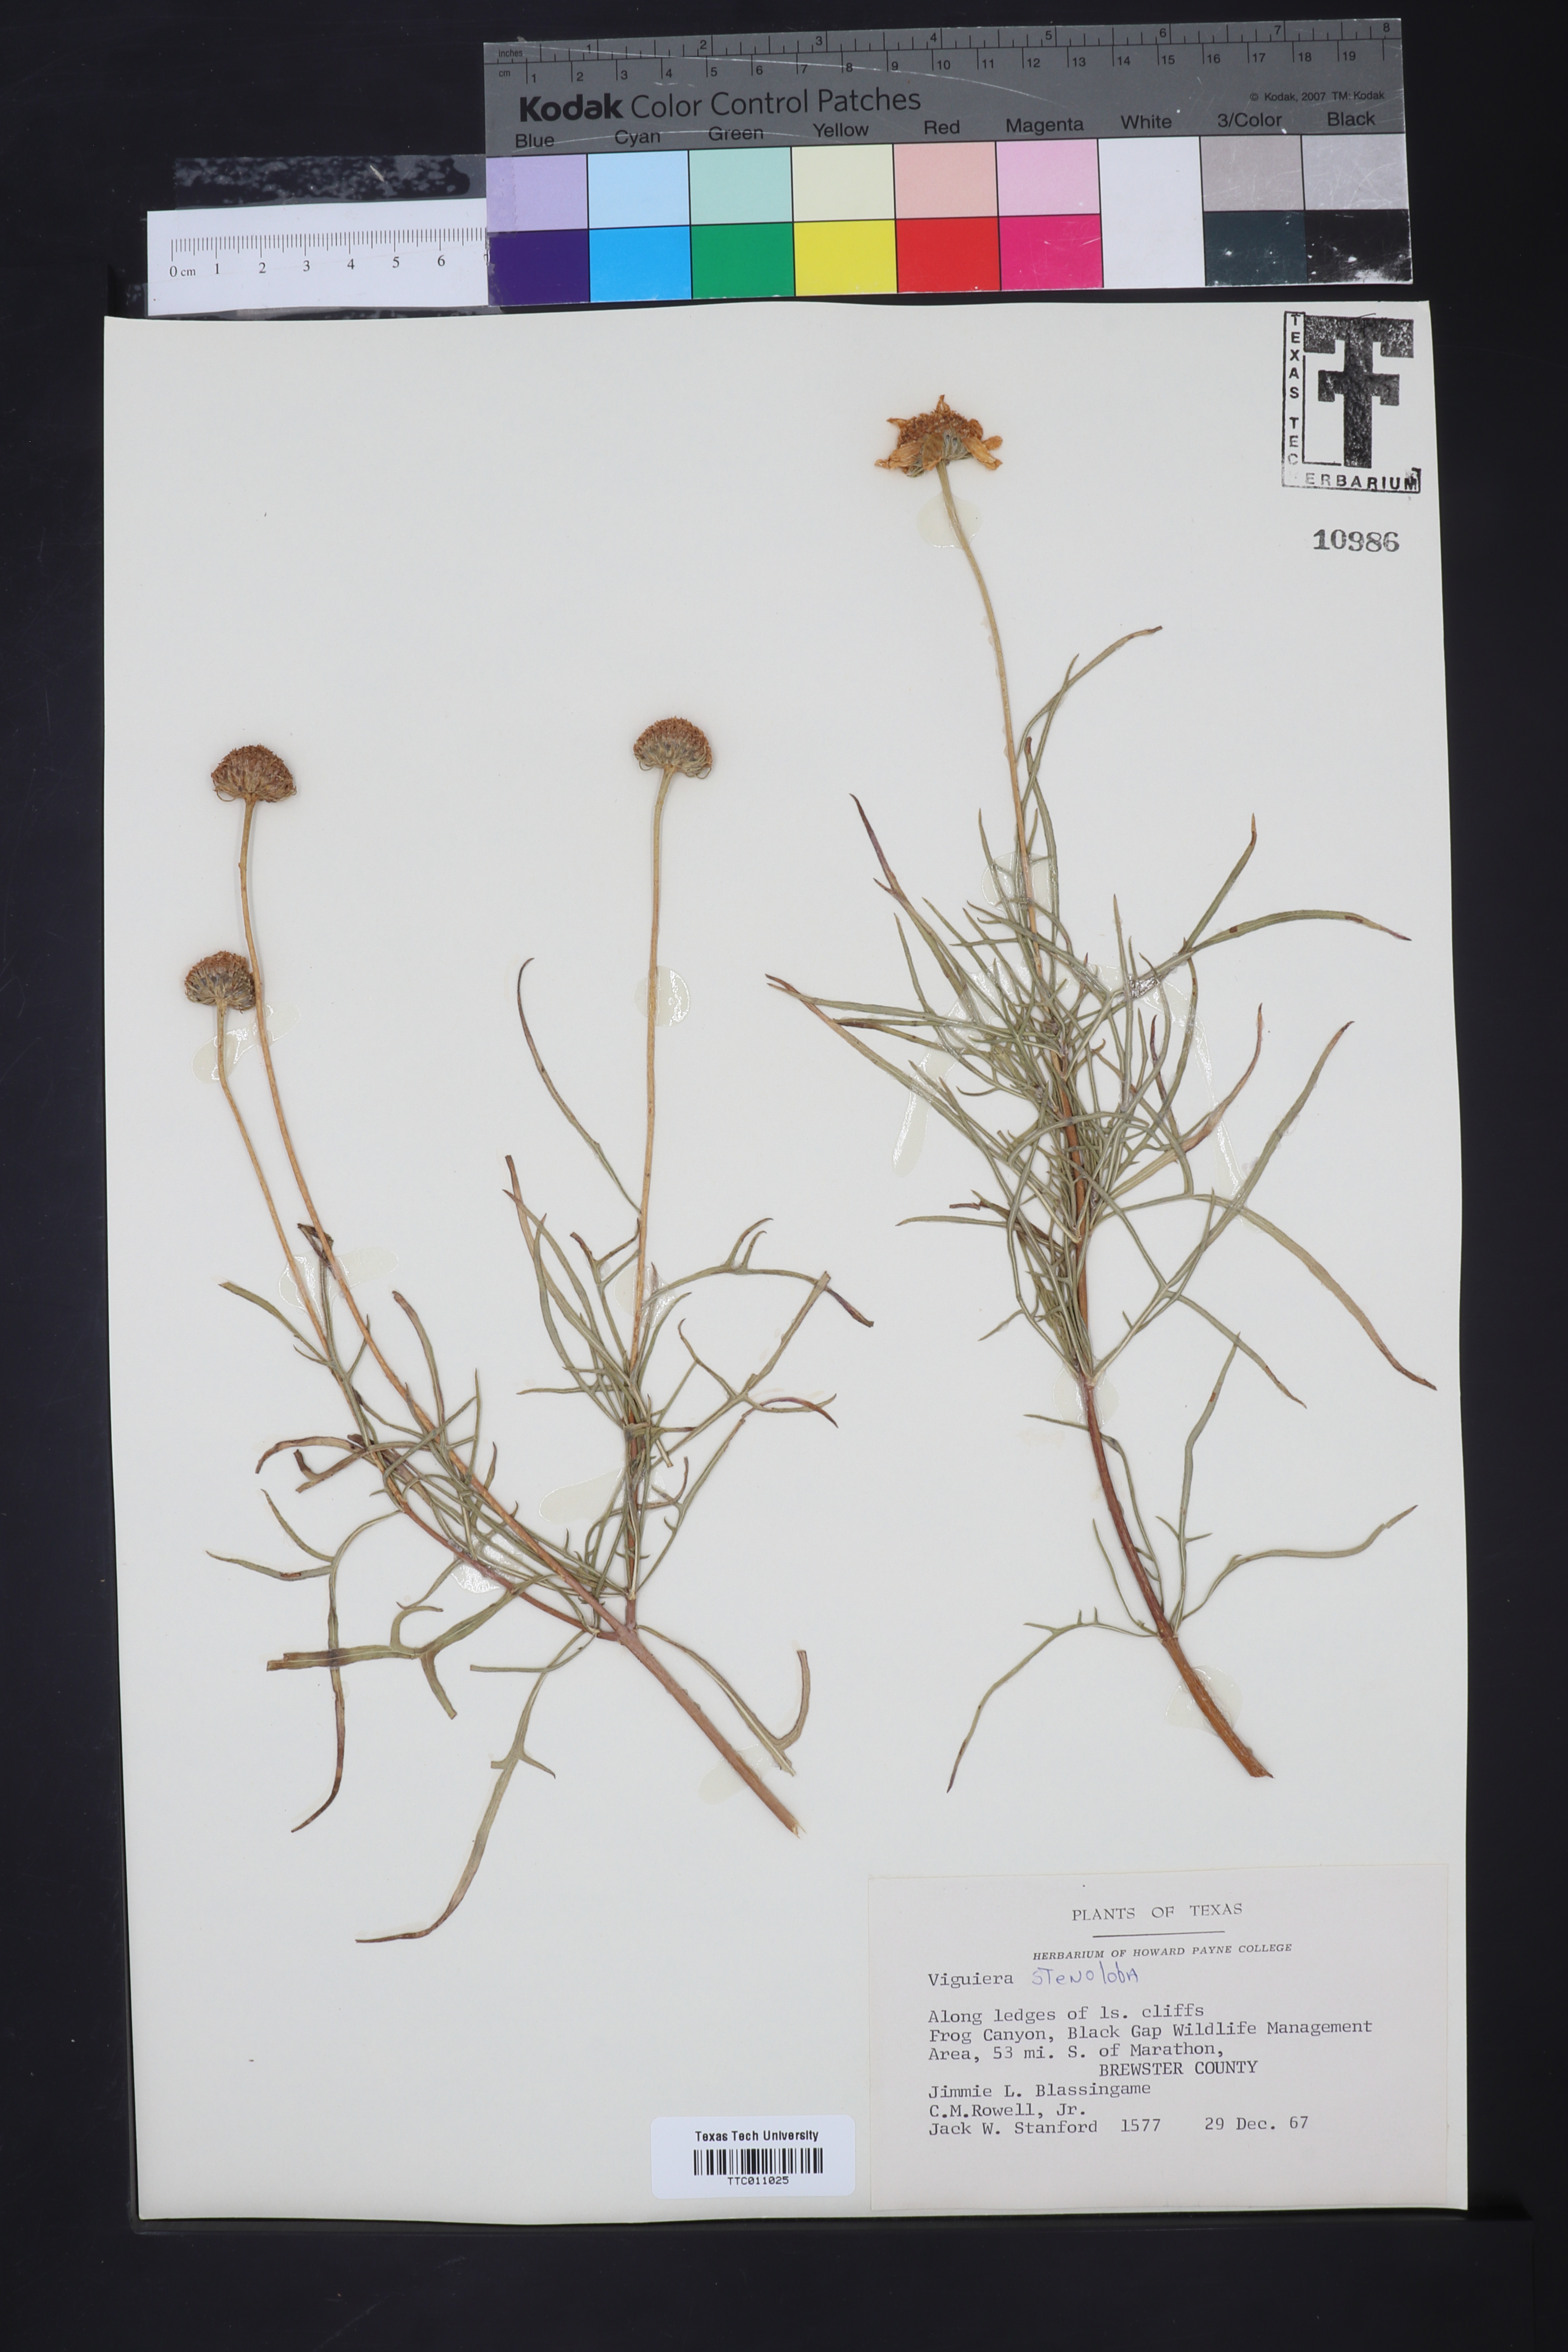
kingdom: Plantae
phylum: Tracheophyta
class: Magnoliopsida
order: Asterales
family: Asteraceae
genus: Sidneya
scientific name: Sidneya tenuifolia
